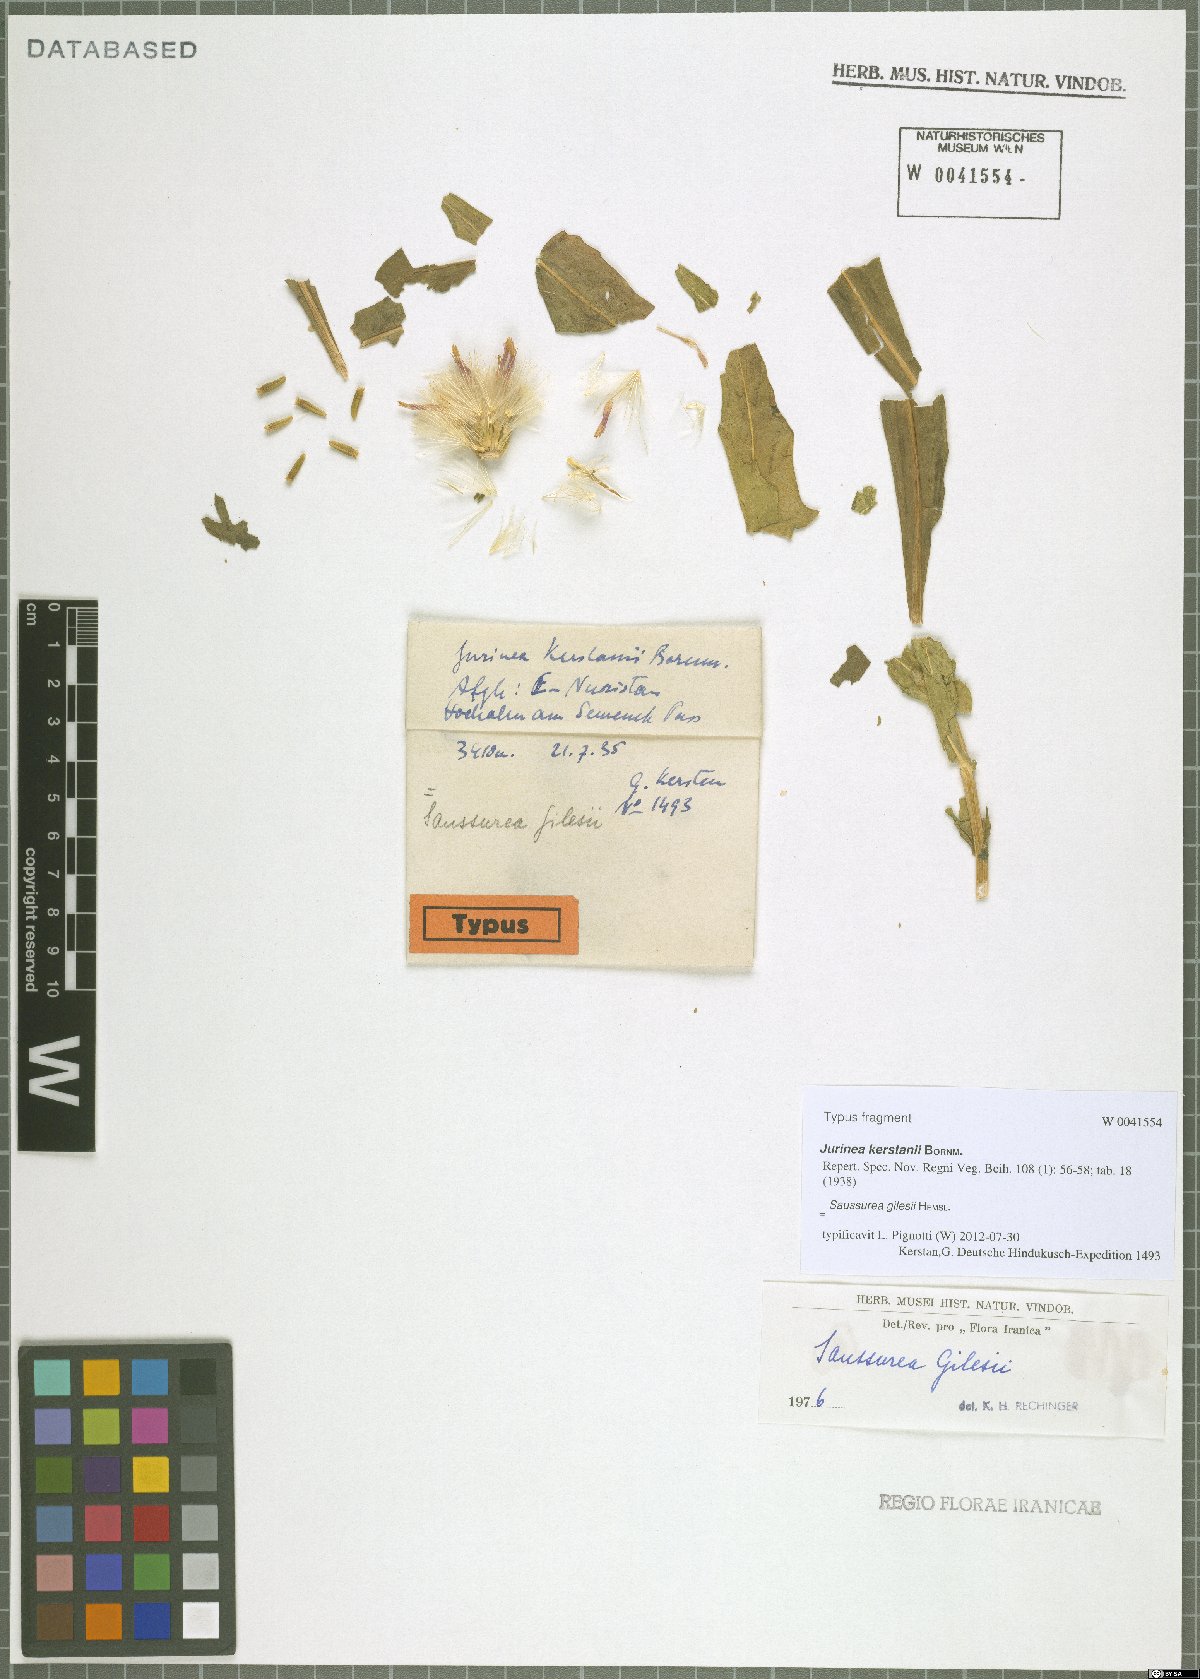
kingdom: Plantae
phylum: Tracheophyta
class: Magnoliopsida
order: Asterales
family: Asteraceae
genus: Jurinea
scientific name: Jurinea gilesii
